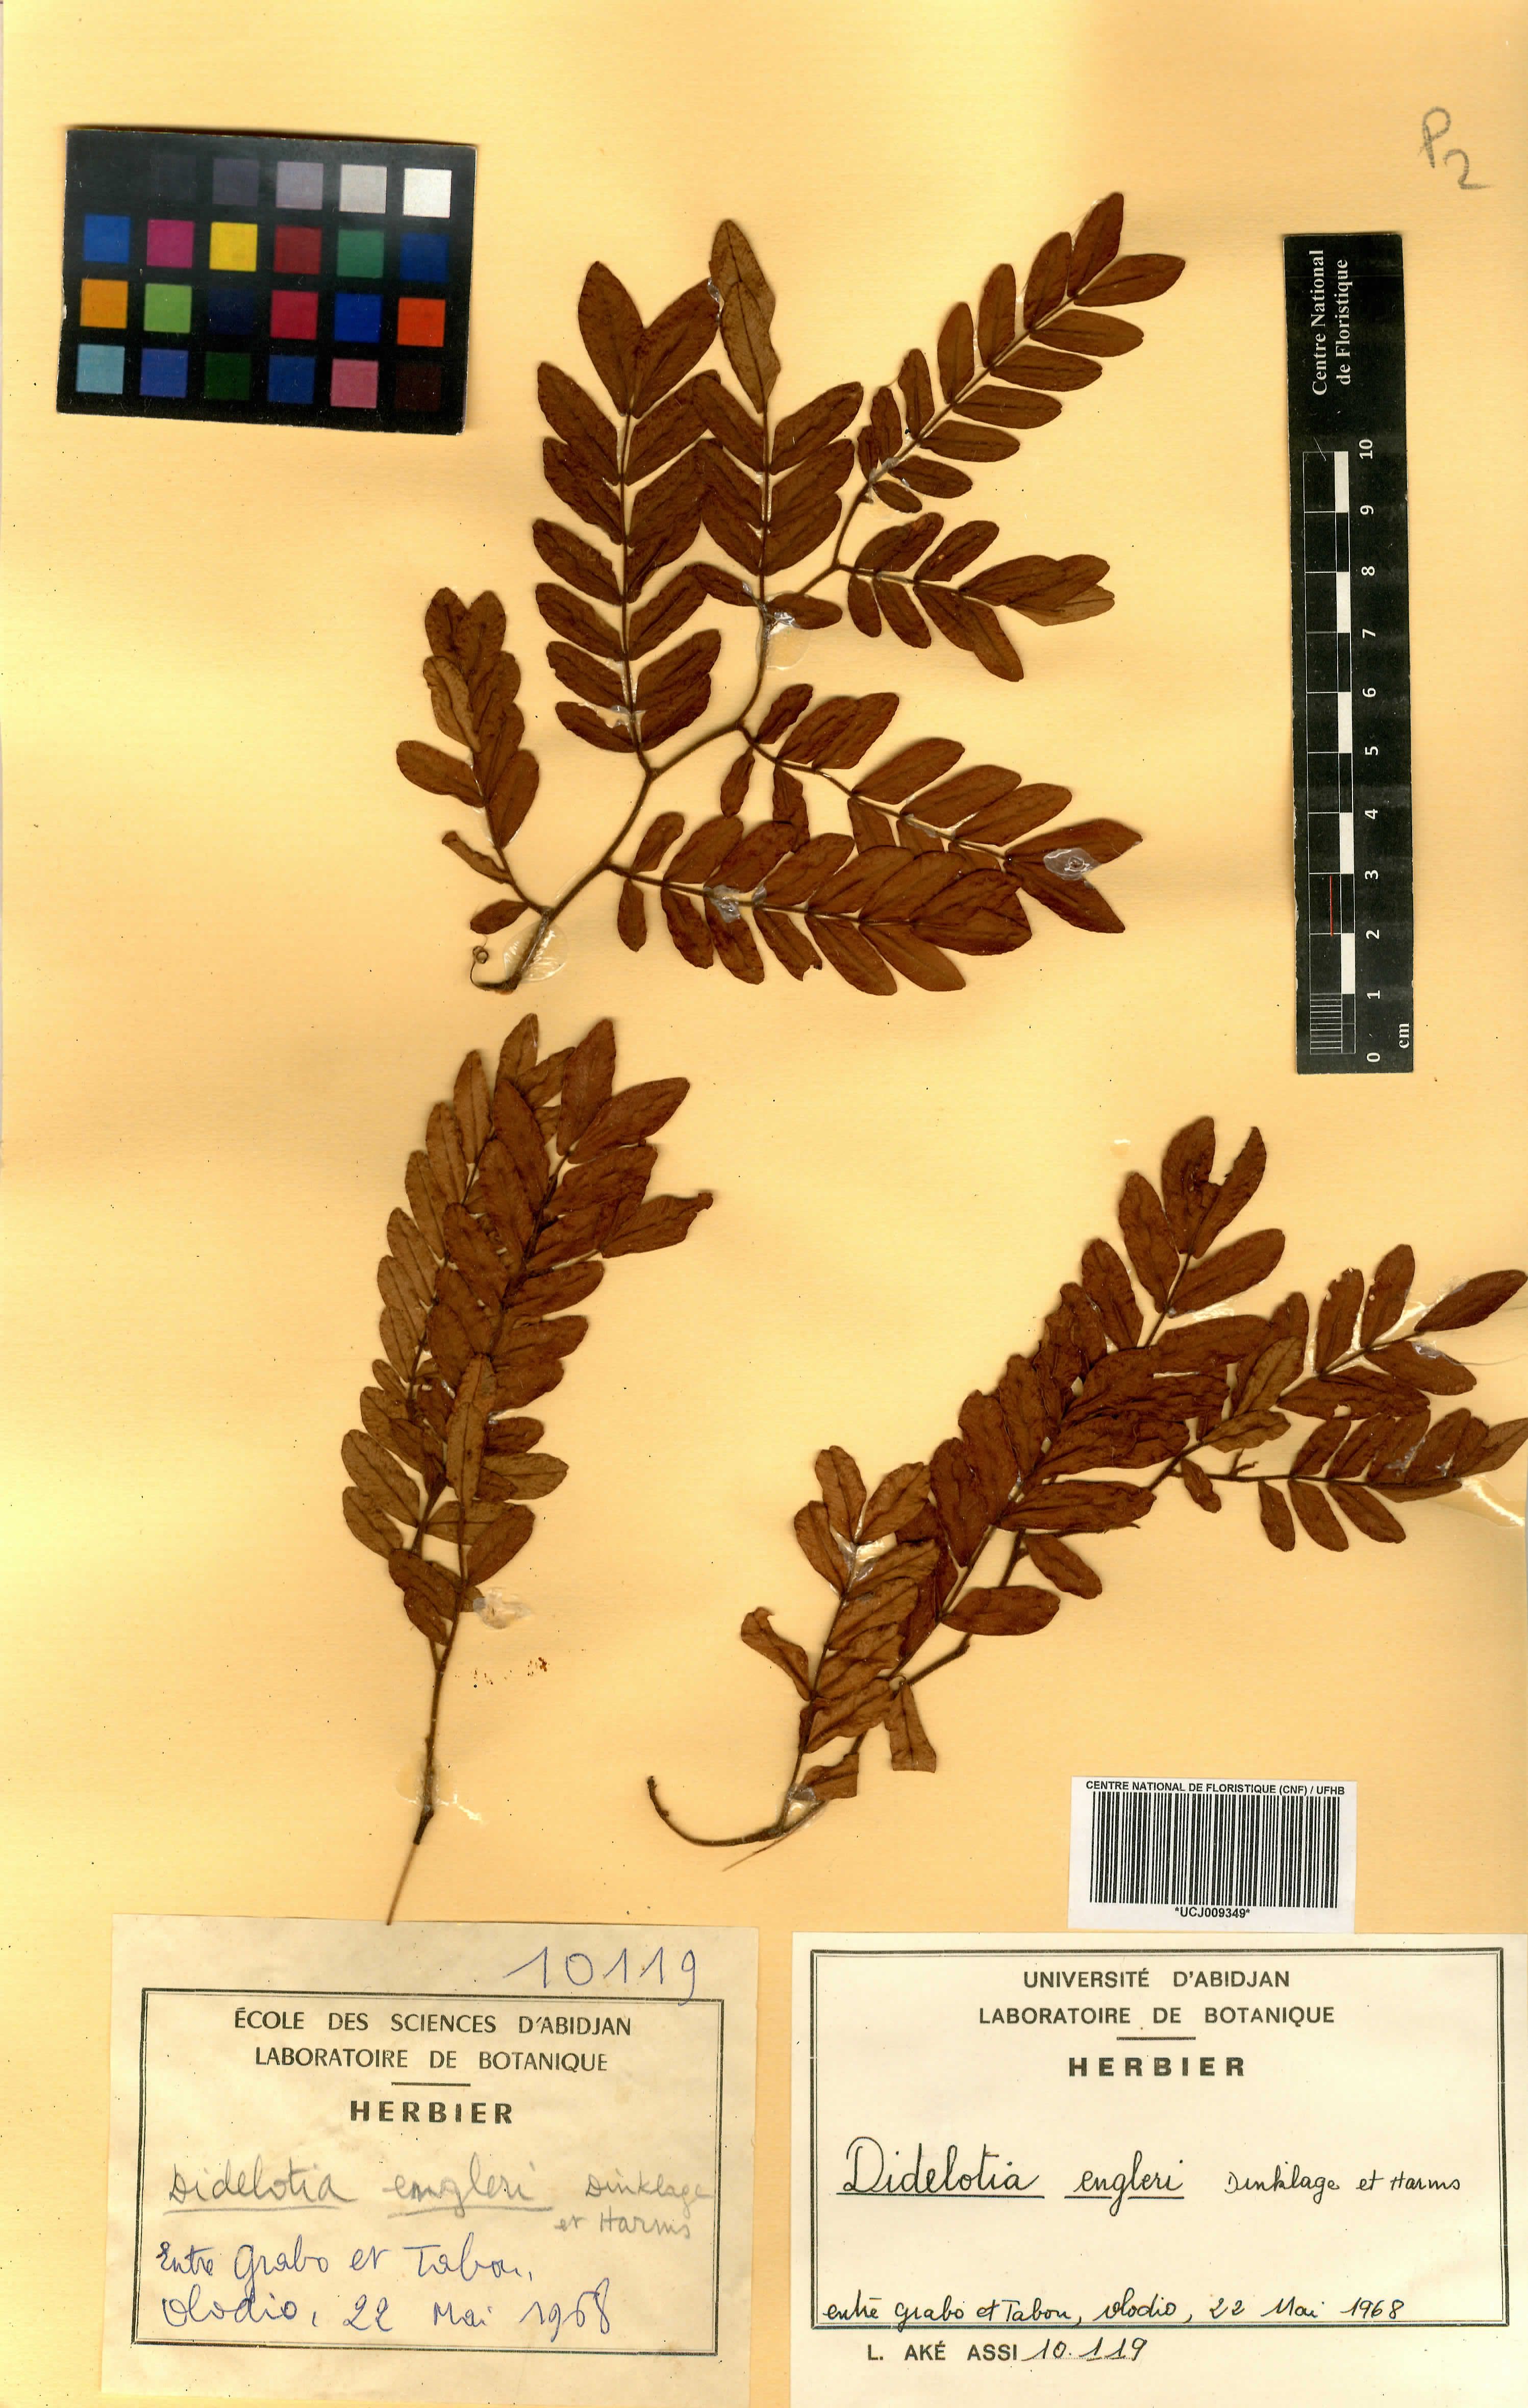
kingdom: Plantae
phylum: Tracheophyta
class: Magnoliopsida
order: Fabales
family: Fabaceae
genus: Didelotia
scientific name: Didelotia engleri
